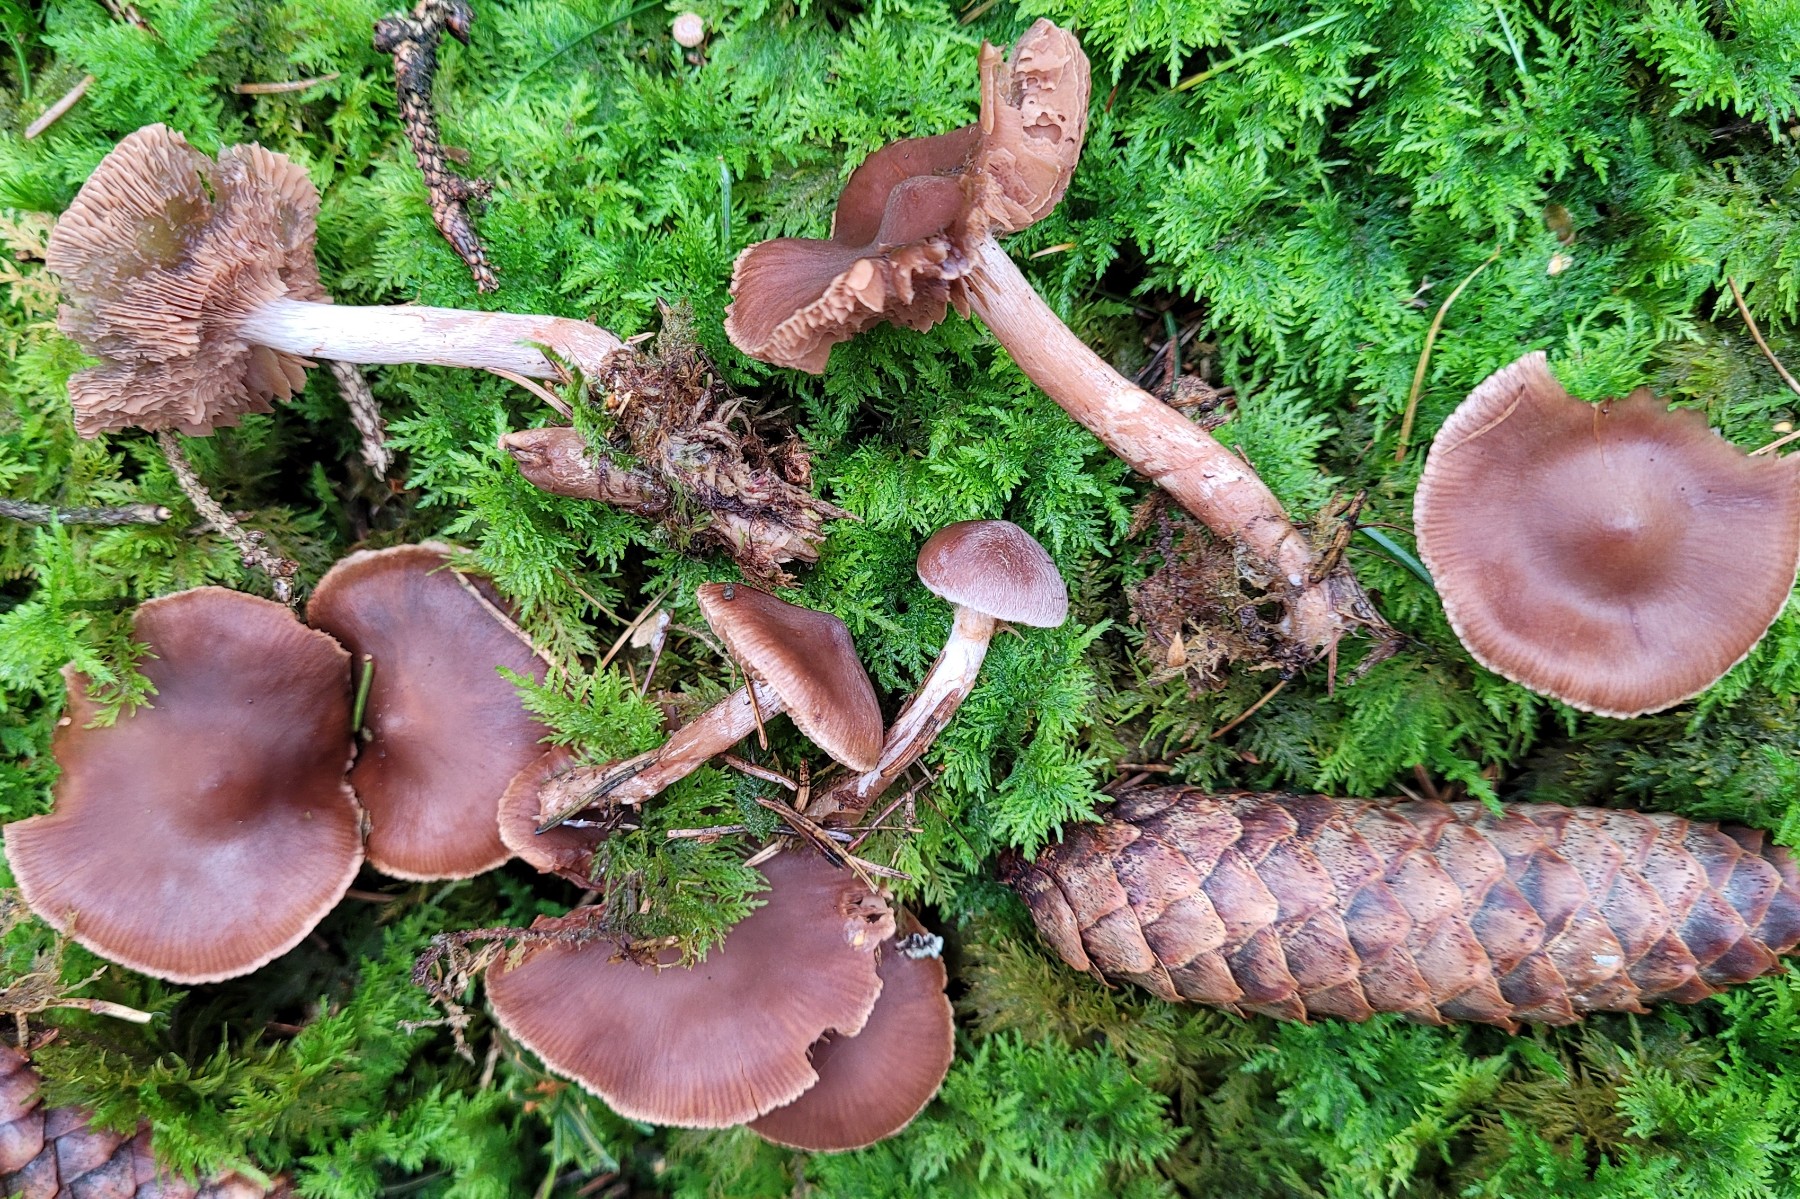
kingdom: Fungi
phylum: Basidiomycota
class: Agaricomycetes
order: Agaricales
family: Cortinariaceae
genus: Cortinarius
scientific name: Cortinarius praestigiosus
